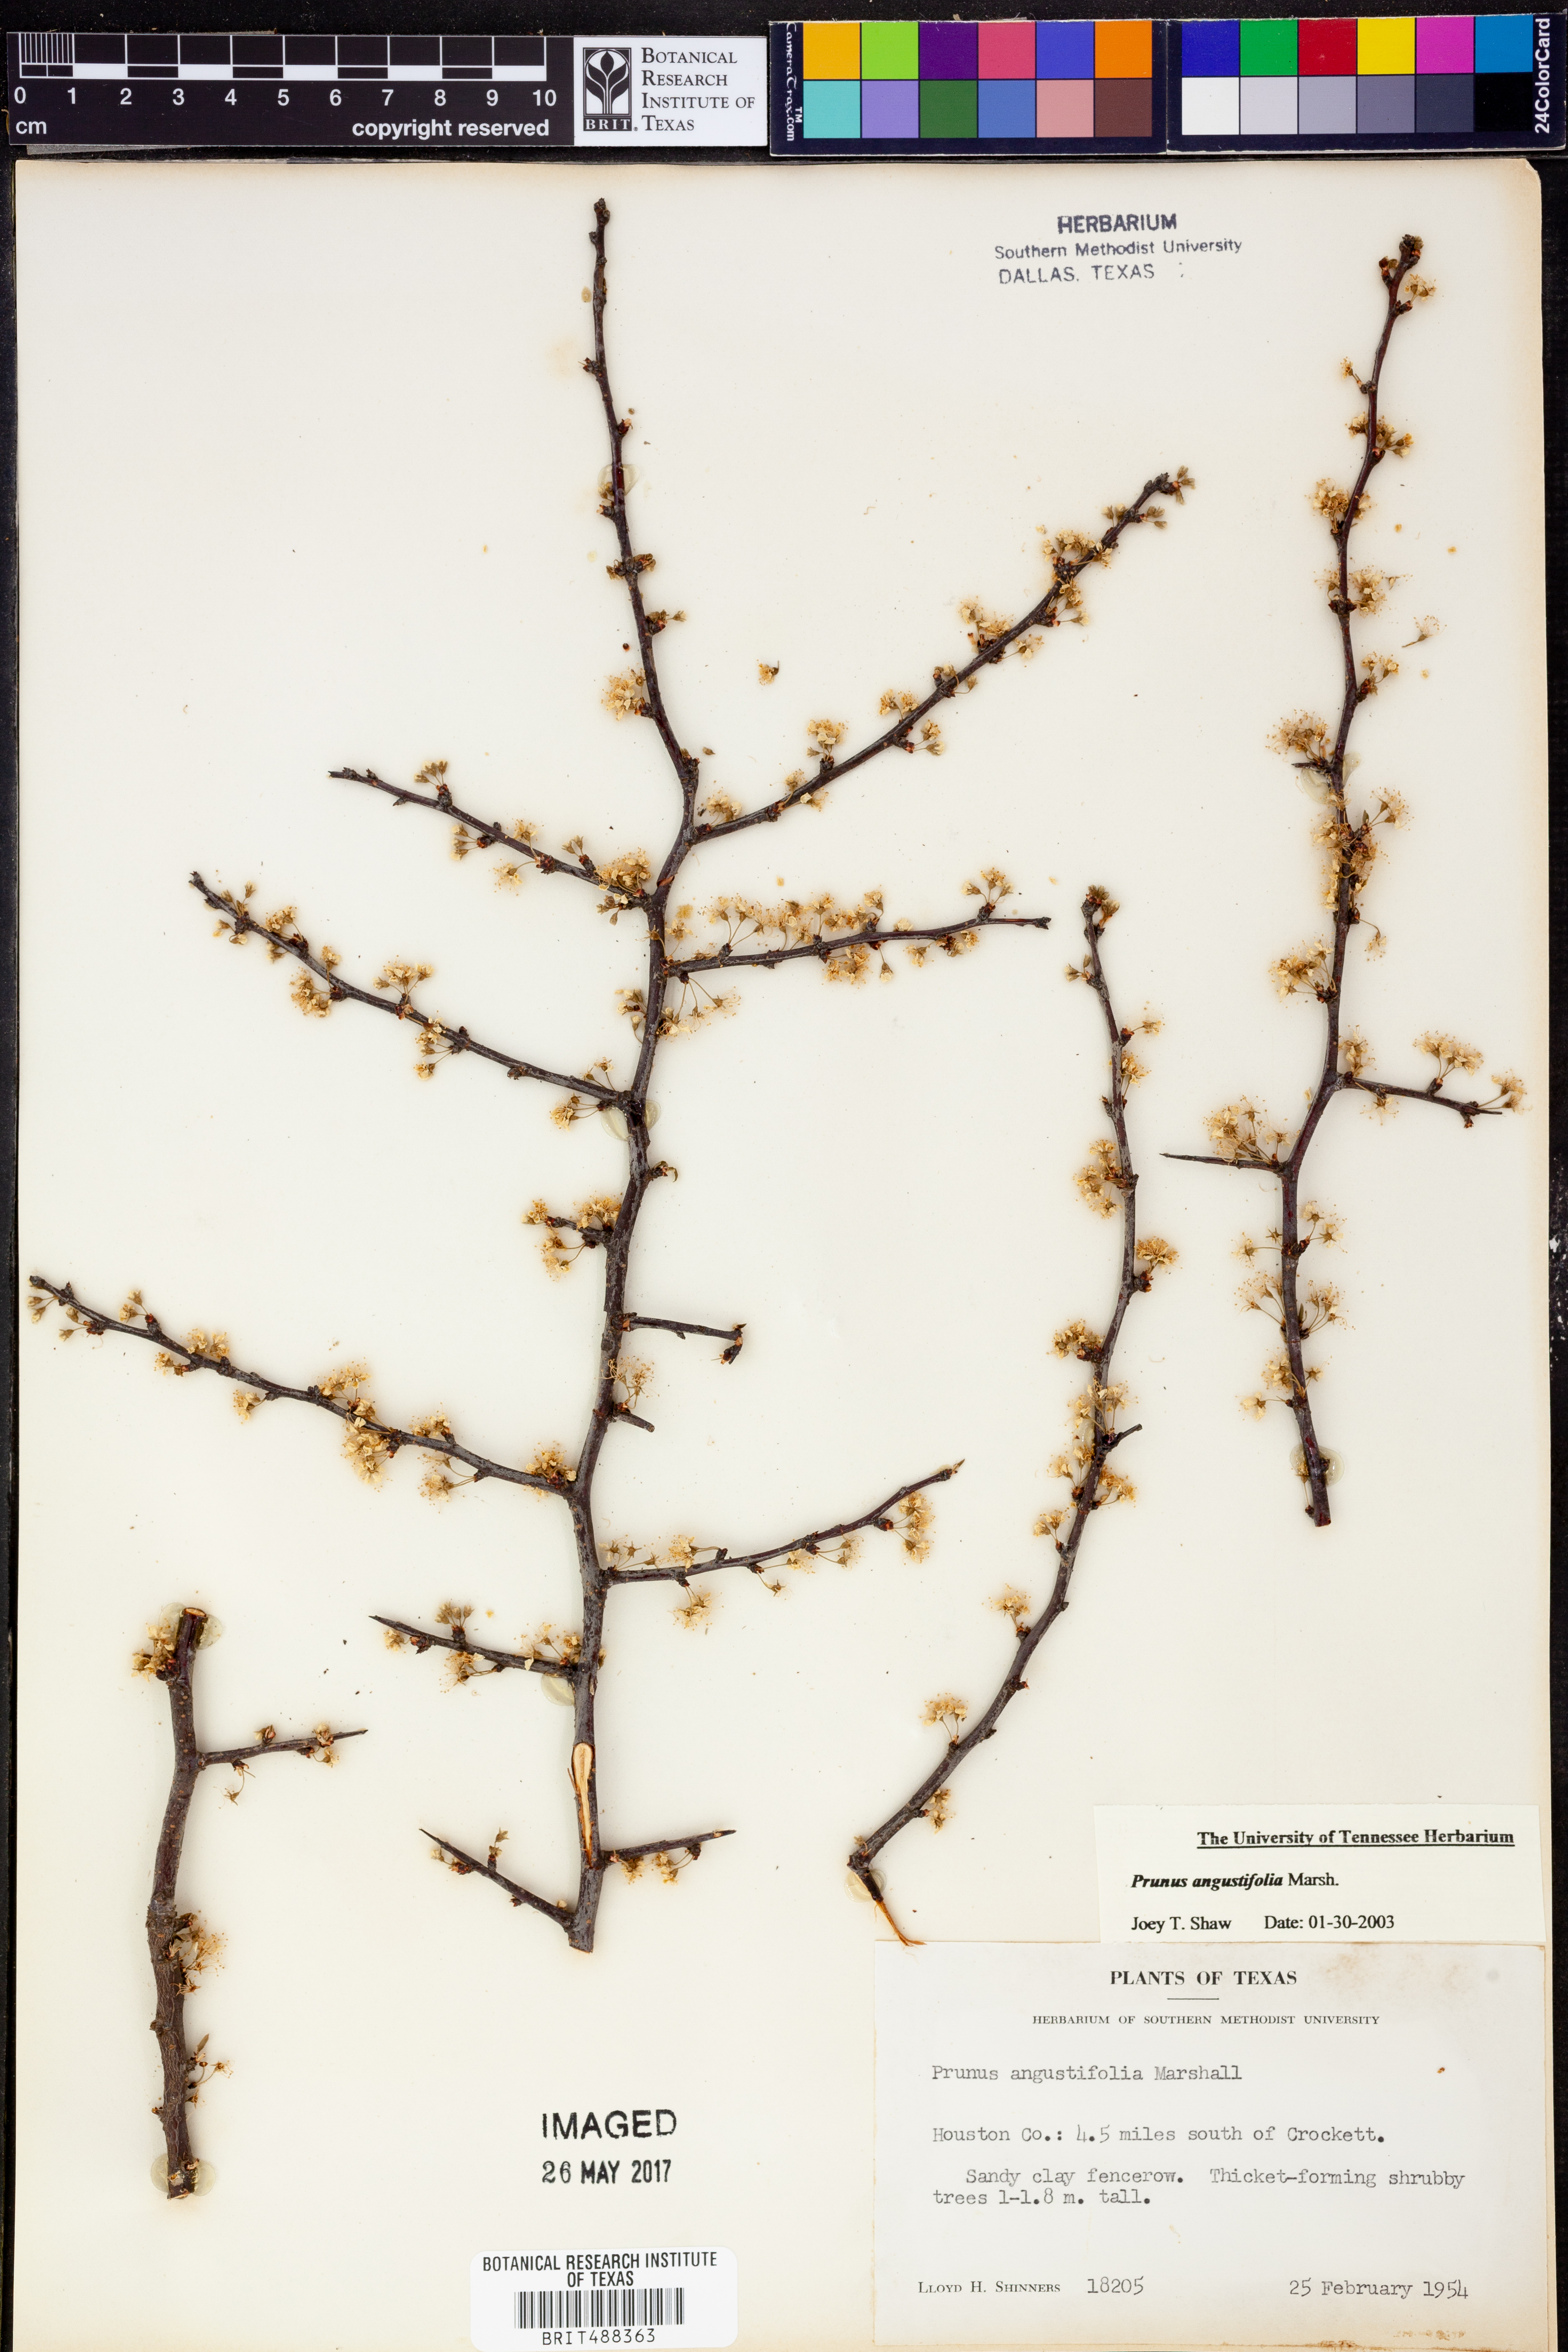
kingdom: Plantae
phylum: Tracheophyta
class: Magnoliopsida
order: Rosales
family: Rosaceae
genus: Prunus
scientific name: Prunus angustifolia
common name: Cherokee plum
